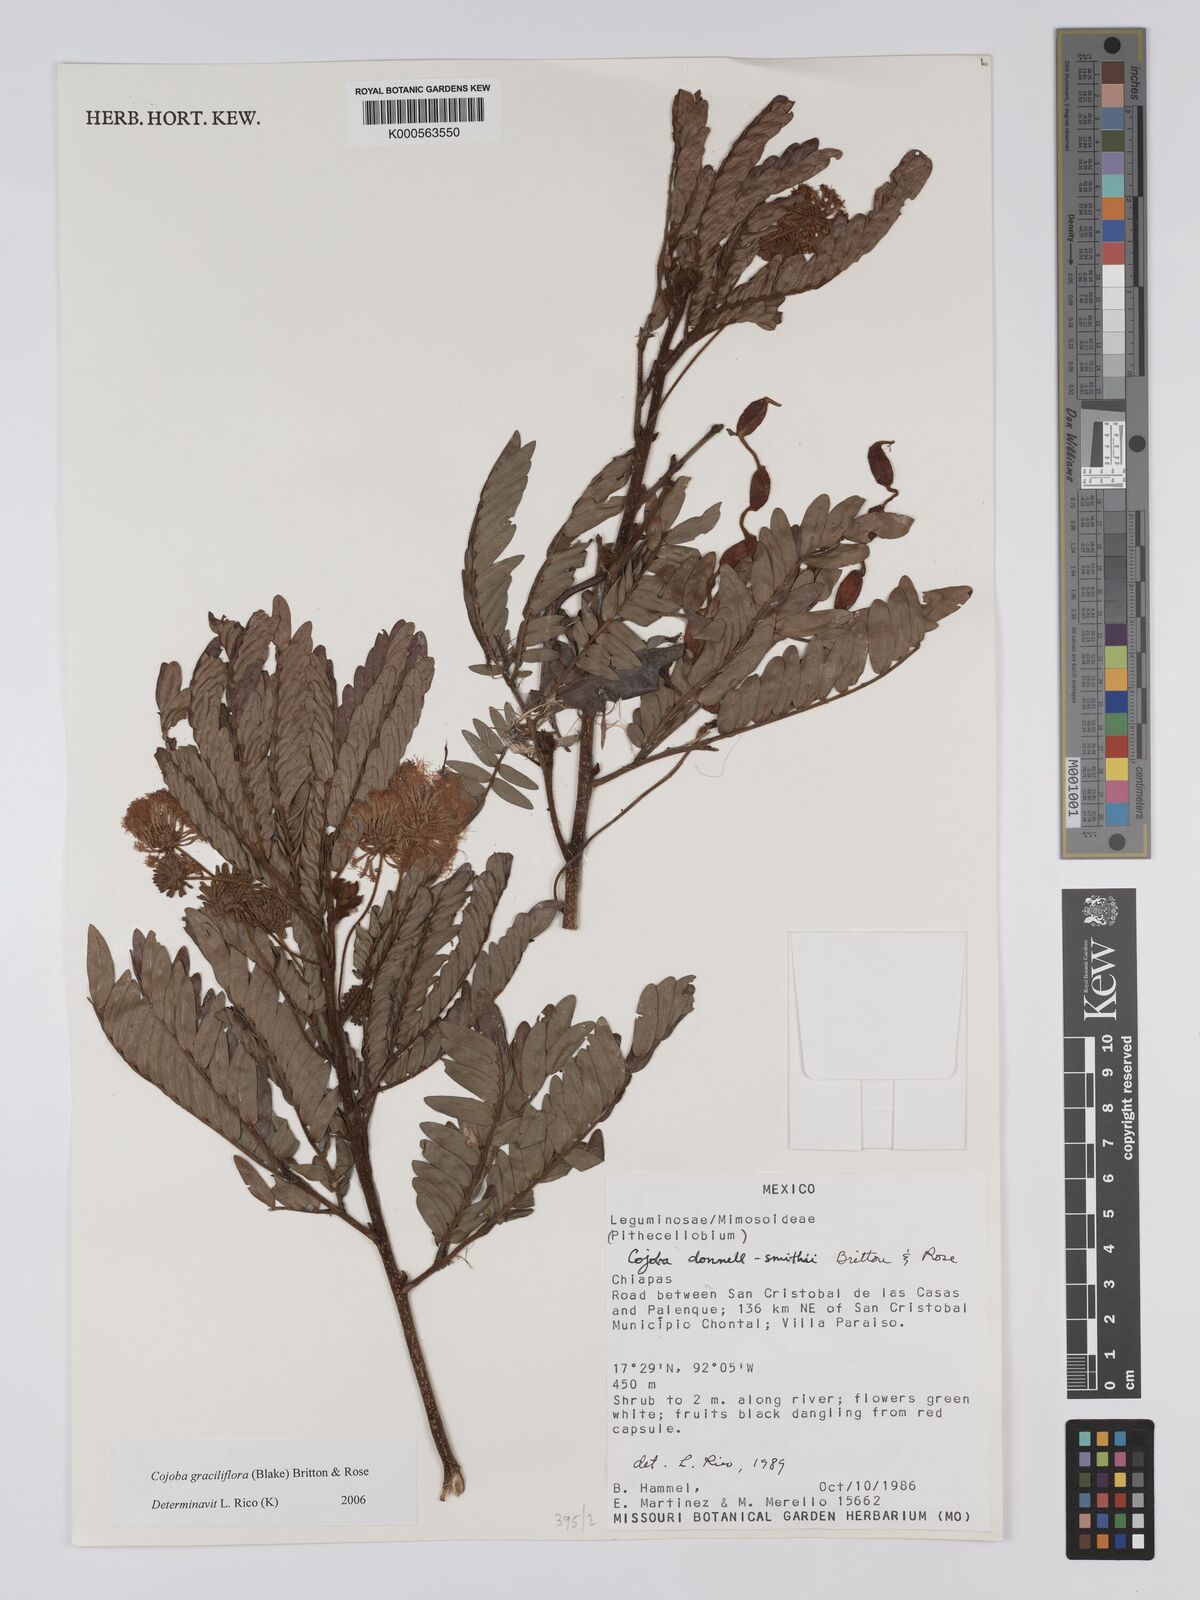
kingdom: Plantae
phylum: Tracheophyta
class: Magnoliopsida
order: Fabales
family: Fabaceae
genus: Cojoba
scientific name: Cojoba graciliflora
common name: Guadeloupe blackbead
